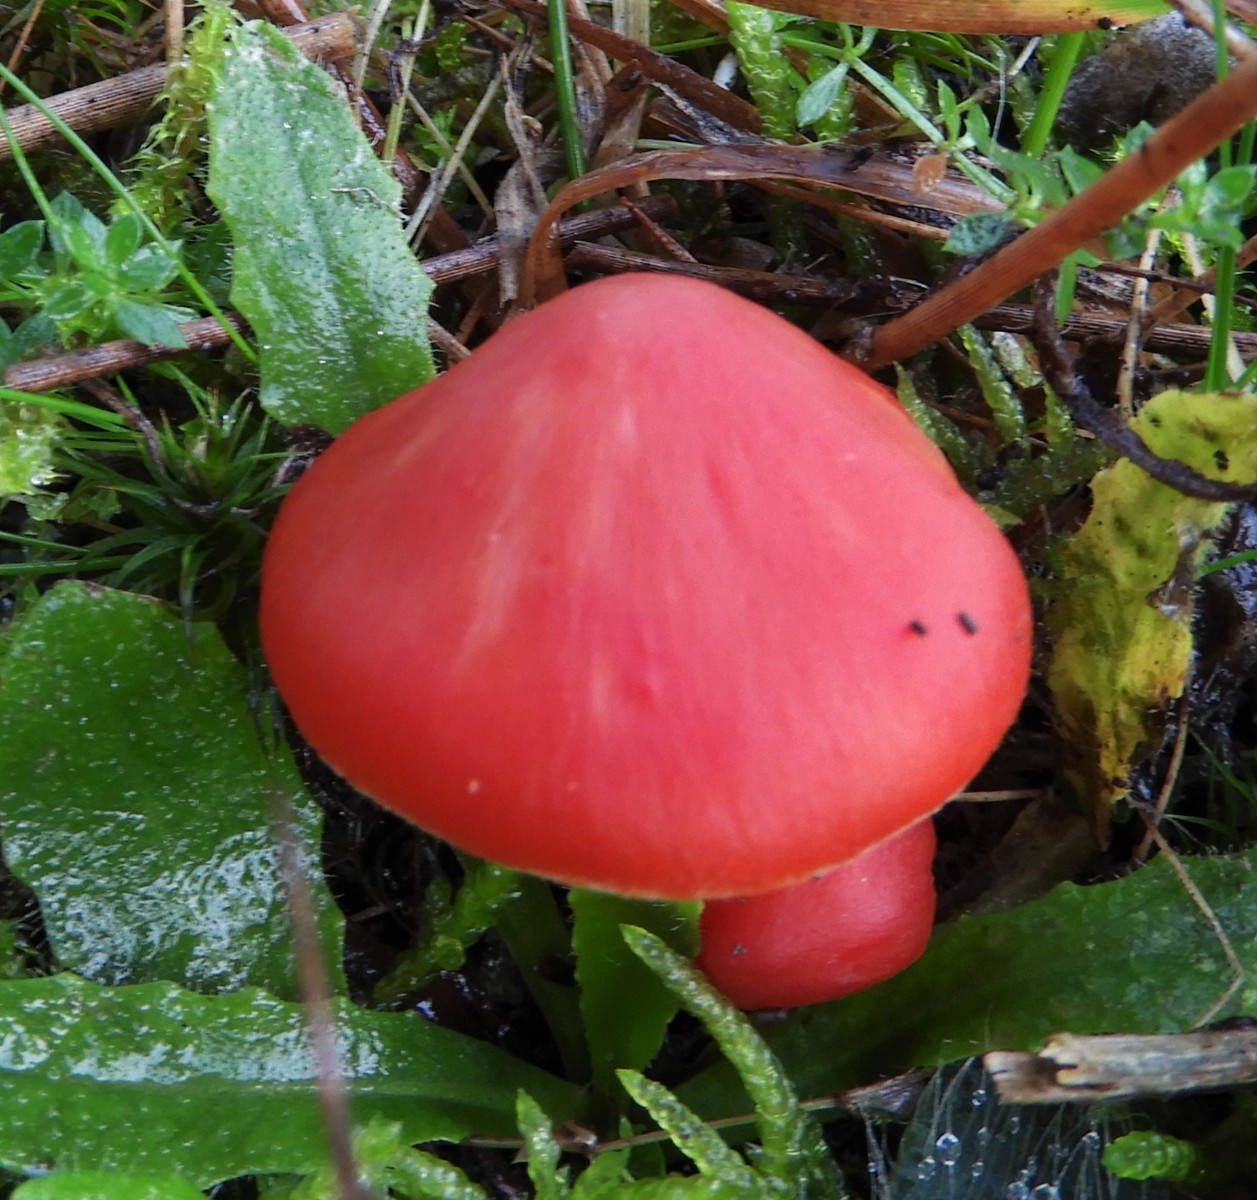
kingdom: Fungi
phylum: Basidiomycota
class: Agaricomycetes
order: Agaricales
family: Hygrophoraceae
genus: Hygrocybe
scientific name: Hygrocybe splendidissima
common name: knaldrød vokshat
